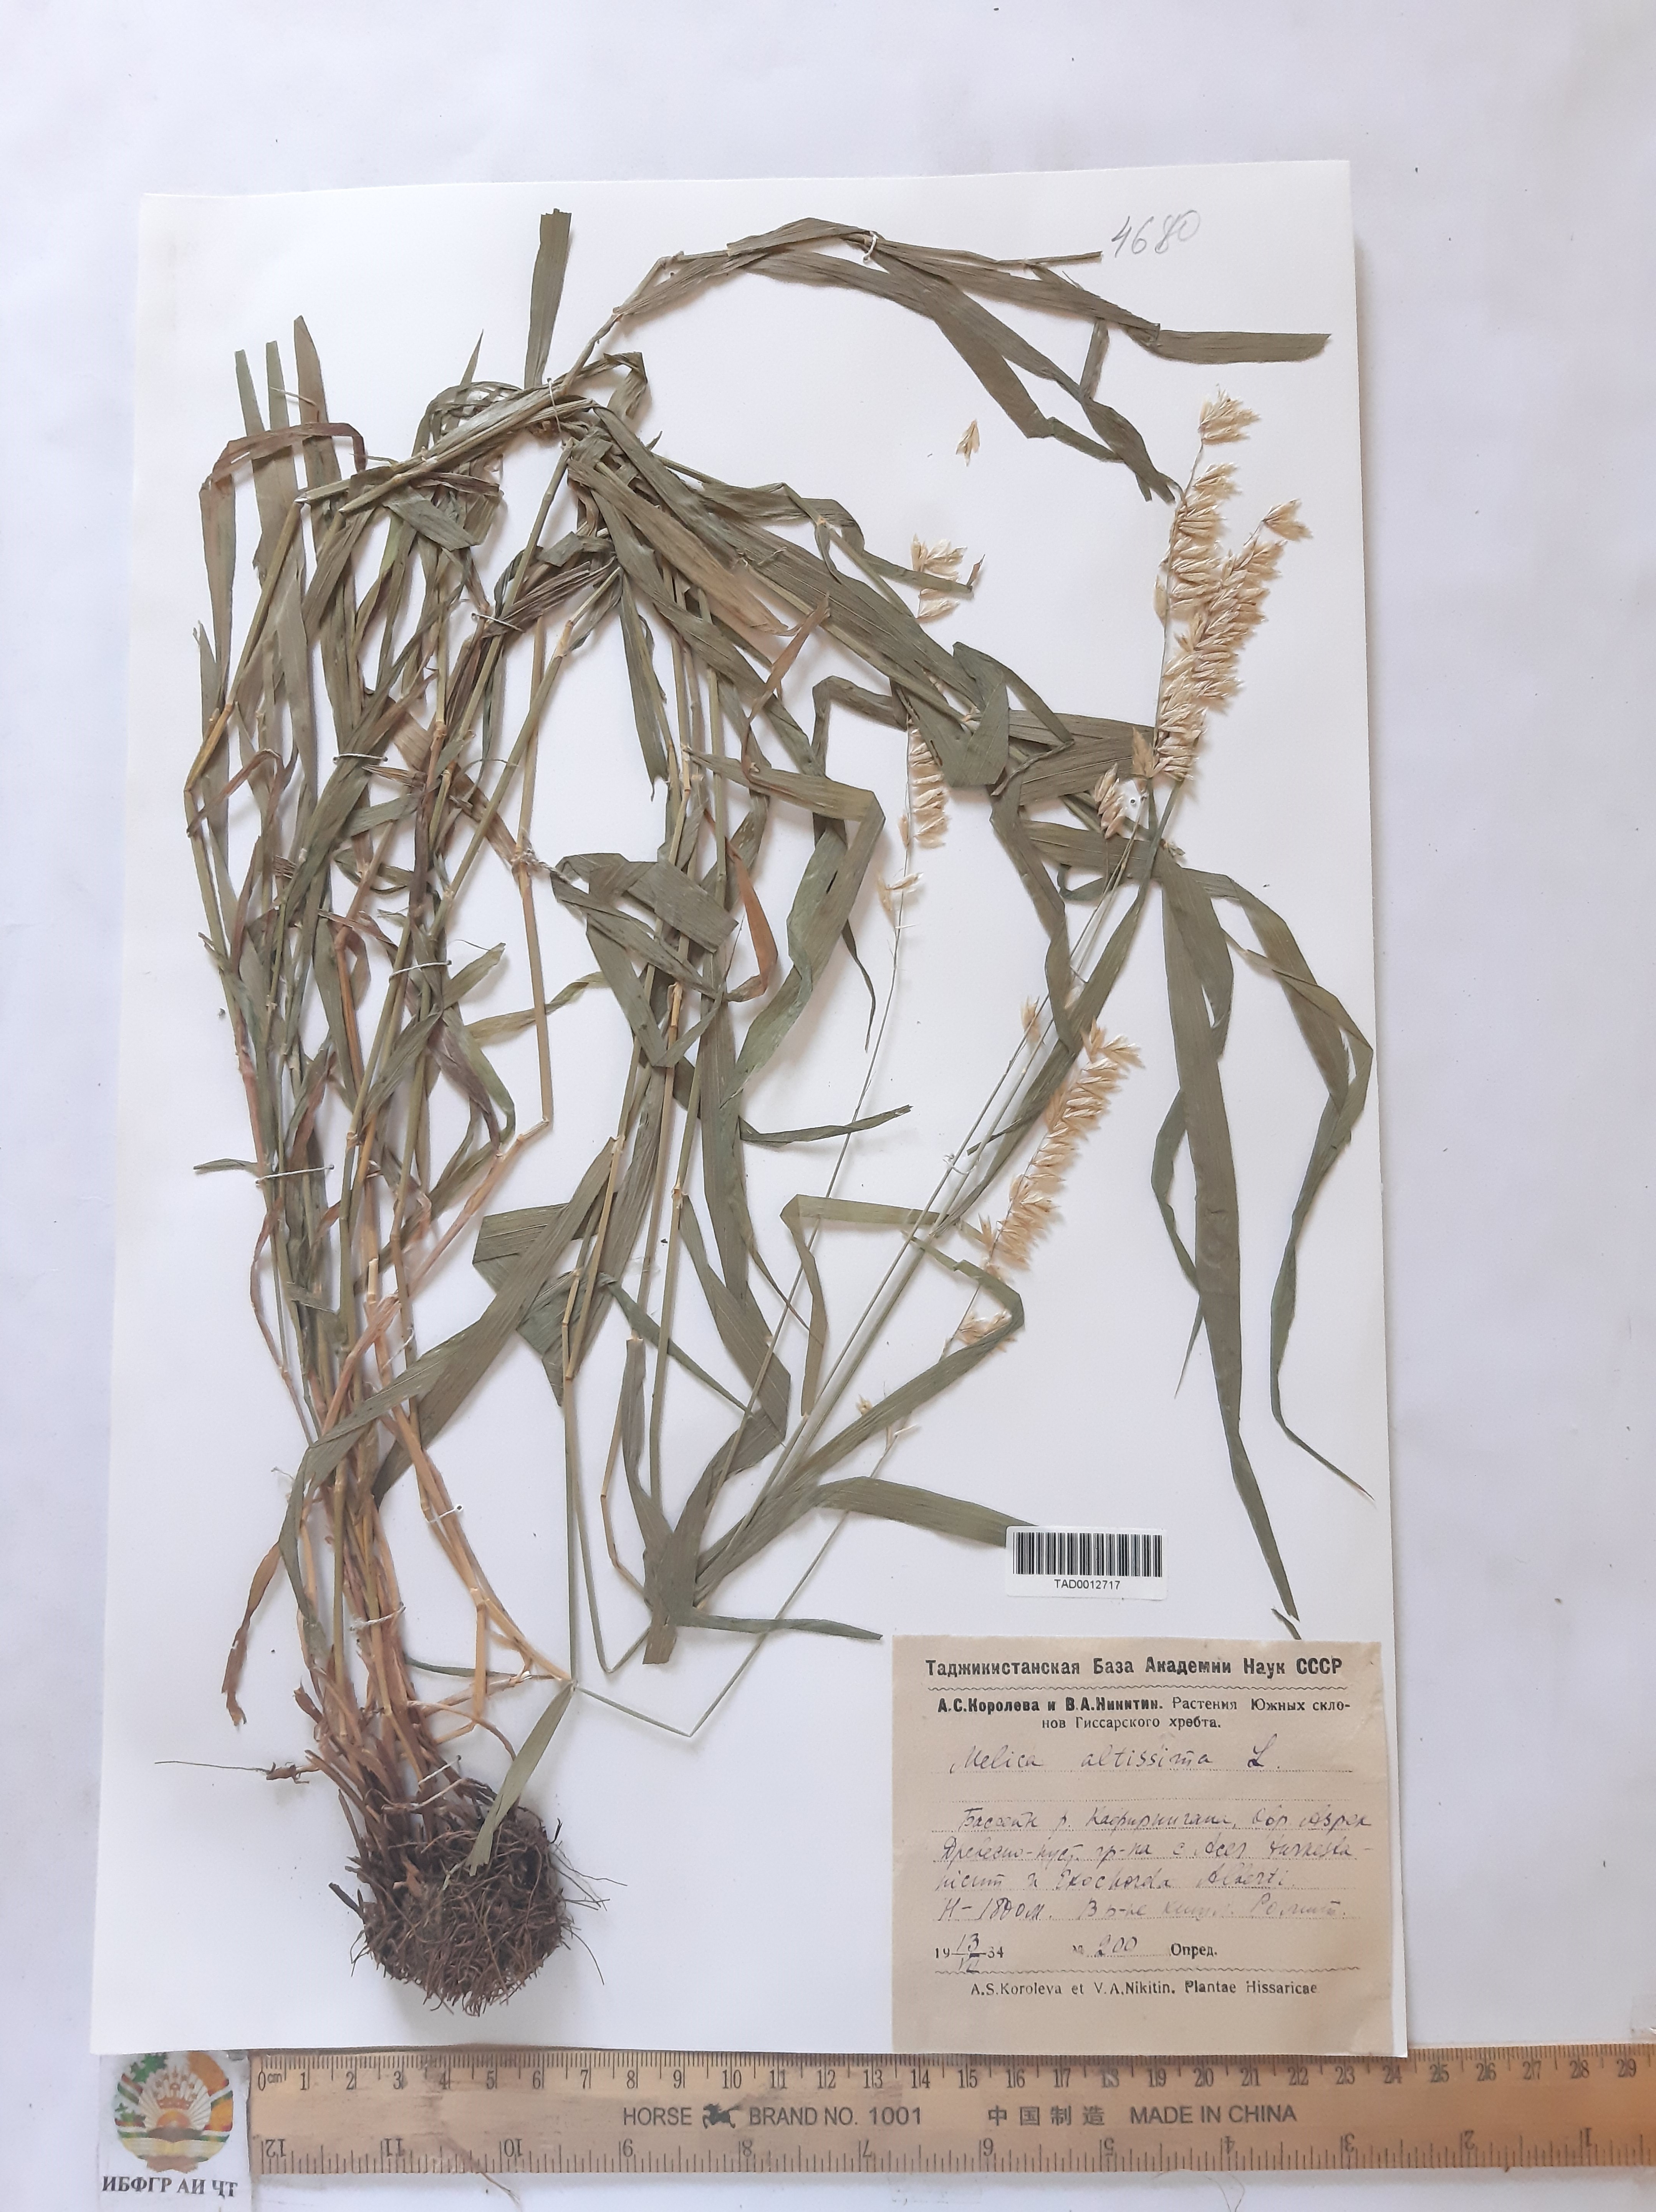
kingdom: Plantae
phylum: Tracheophyta
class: Liliopsida
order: Poales
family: Poaceae
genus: Melica
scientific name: Melica altissima
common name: Siberian melicgrass
